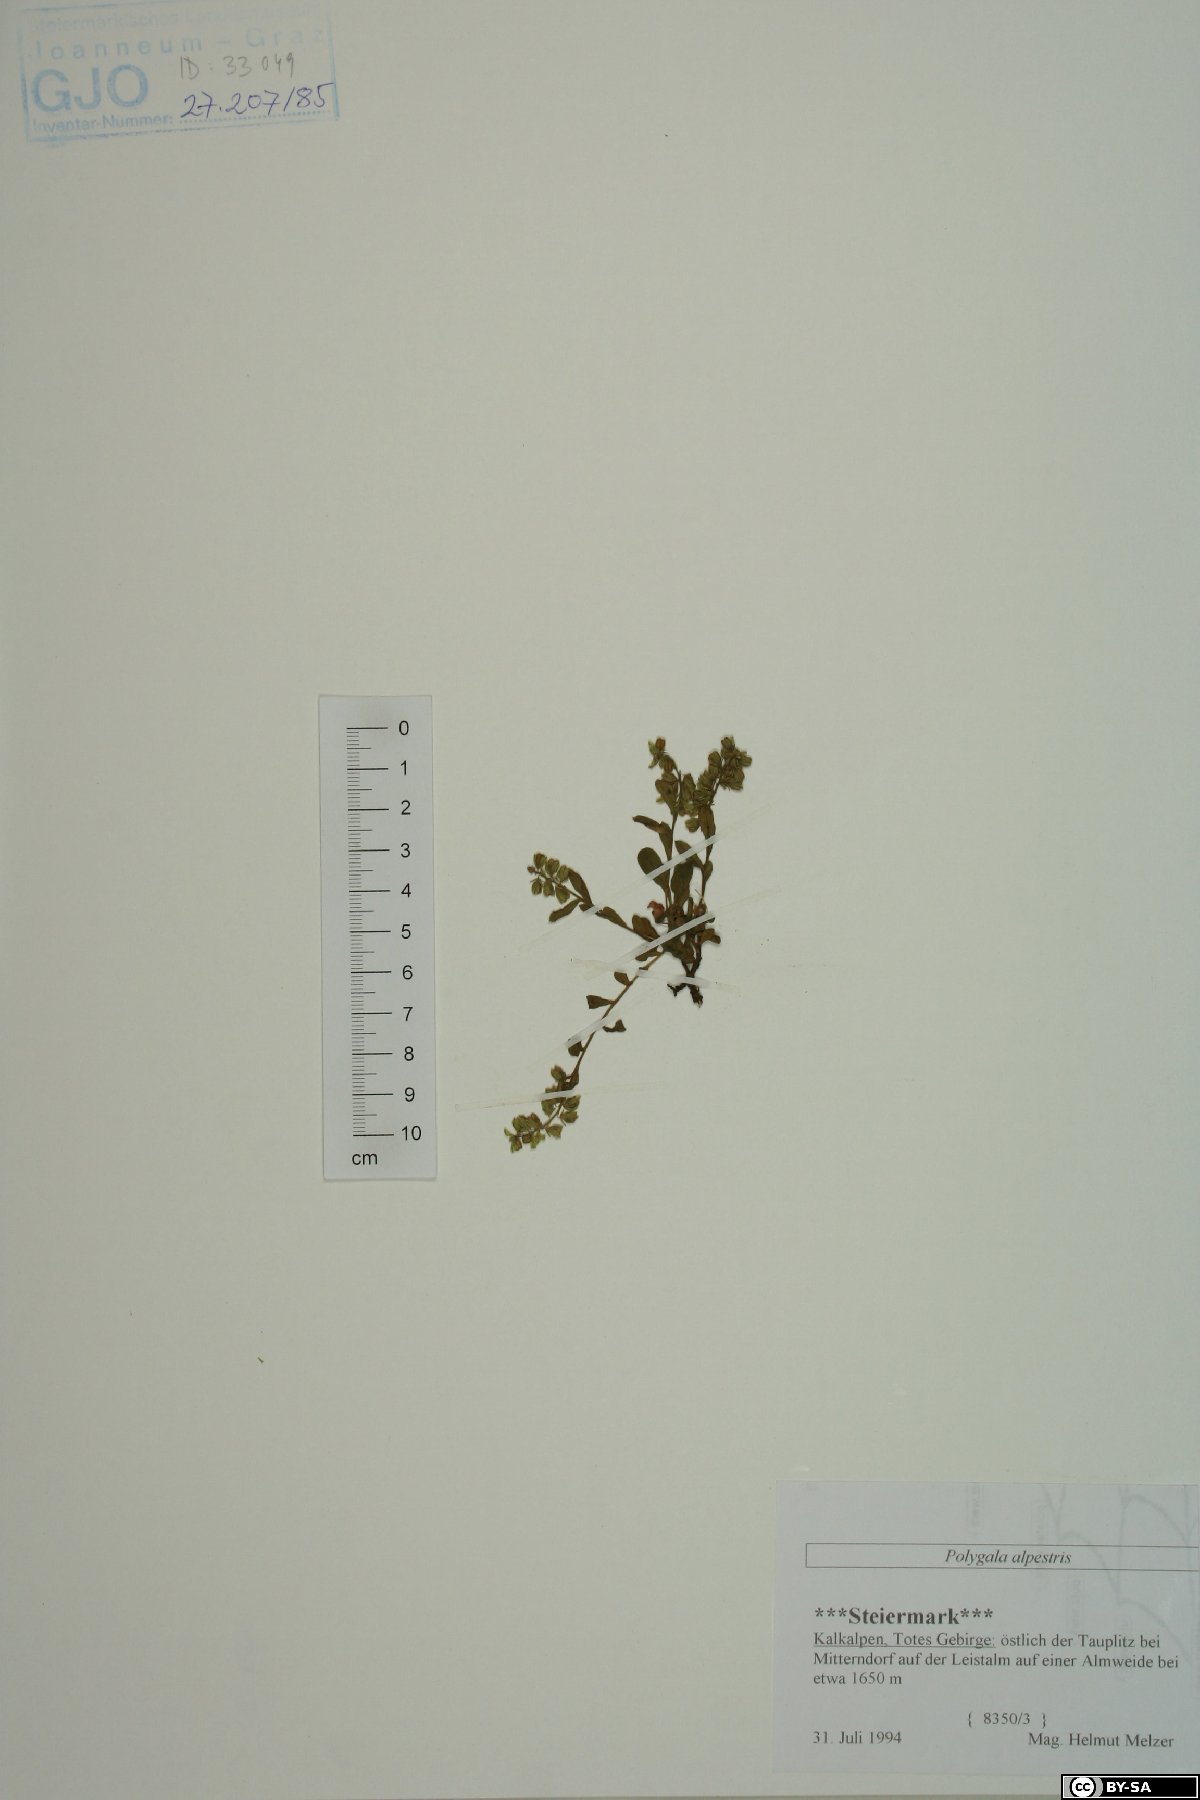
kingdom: Plantae
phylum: Tracheophyta
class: Magnoliopsida
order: Fabales
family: Polygalaceae
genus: Polygala
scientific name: Polygala alpestris
